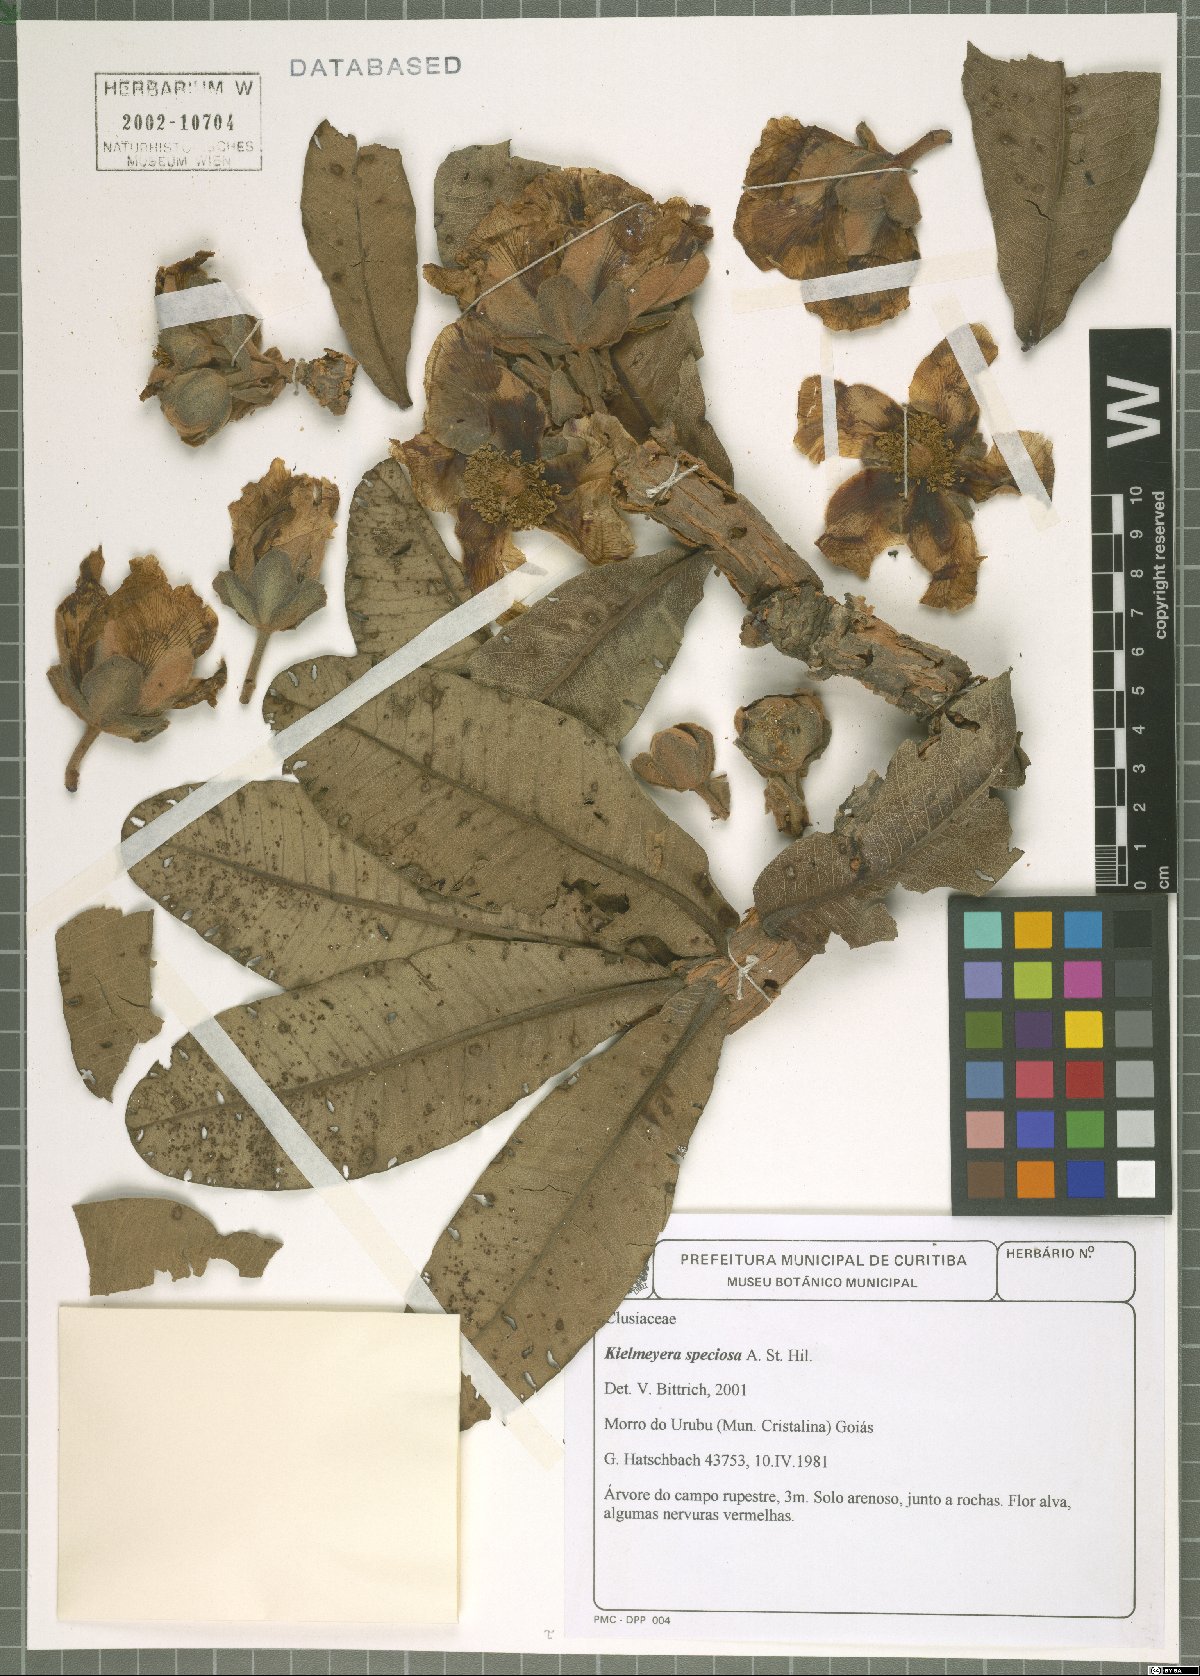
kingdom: Plantae
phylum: Tracheophyta
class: Magnoliopsida
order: Malpighiales
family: Calophyllaceae
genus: Kielmeyera
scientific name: Kielmeyera speciosa
